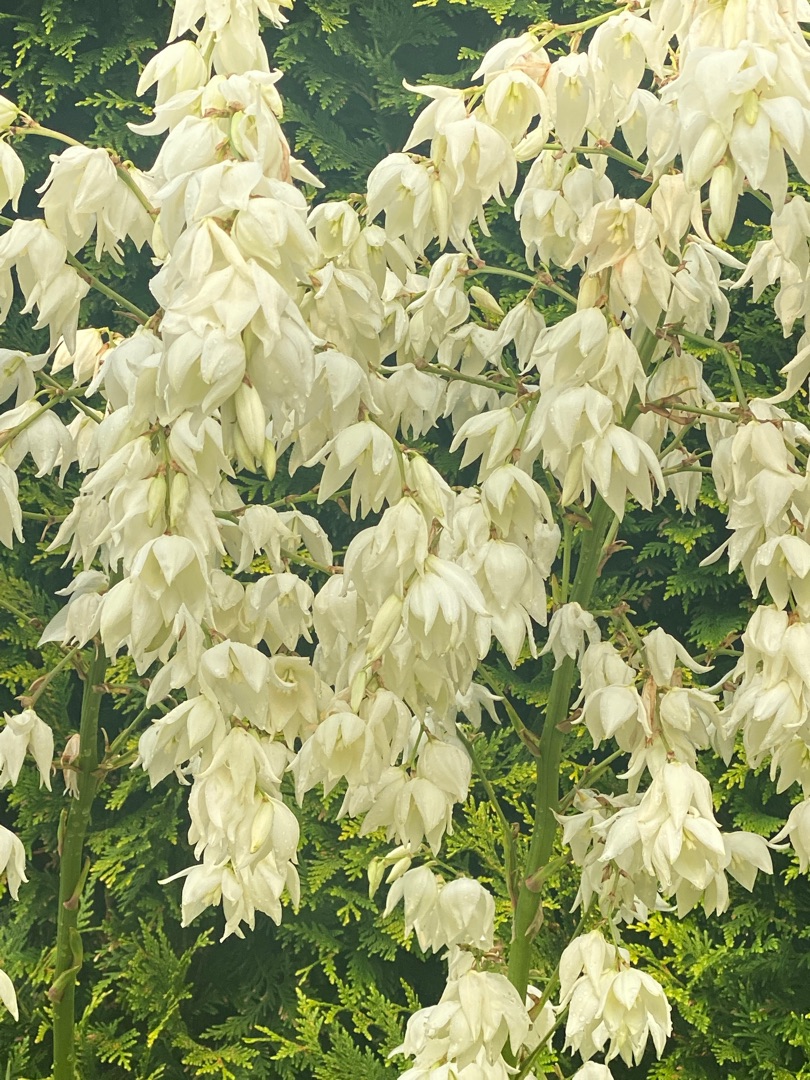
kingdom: Plantae
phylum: Tracheophyta
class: Liliopsida
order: Asparagales
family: Asparagaceae
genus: Yucca
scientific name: Yucca filamentosa
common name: Trævlet palmelilje
